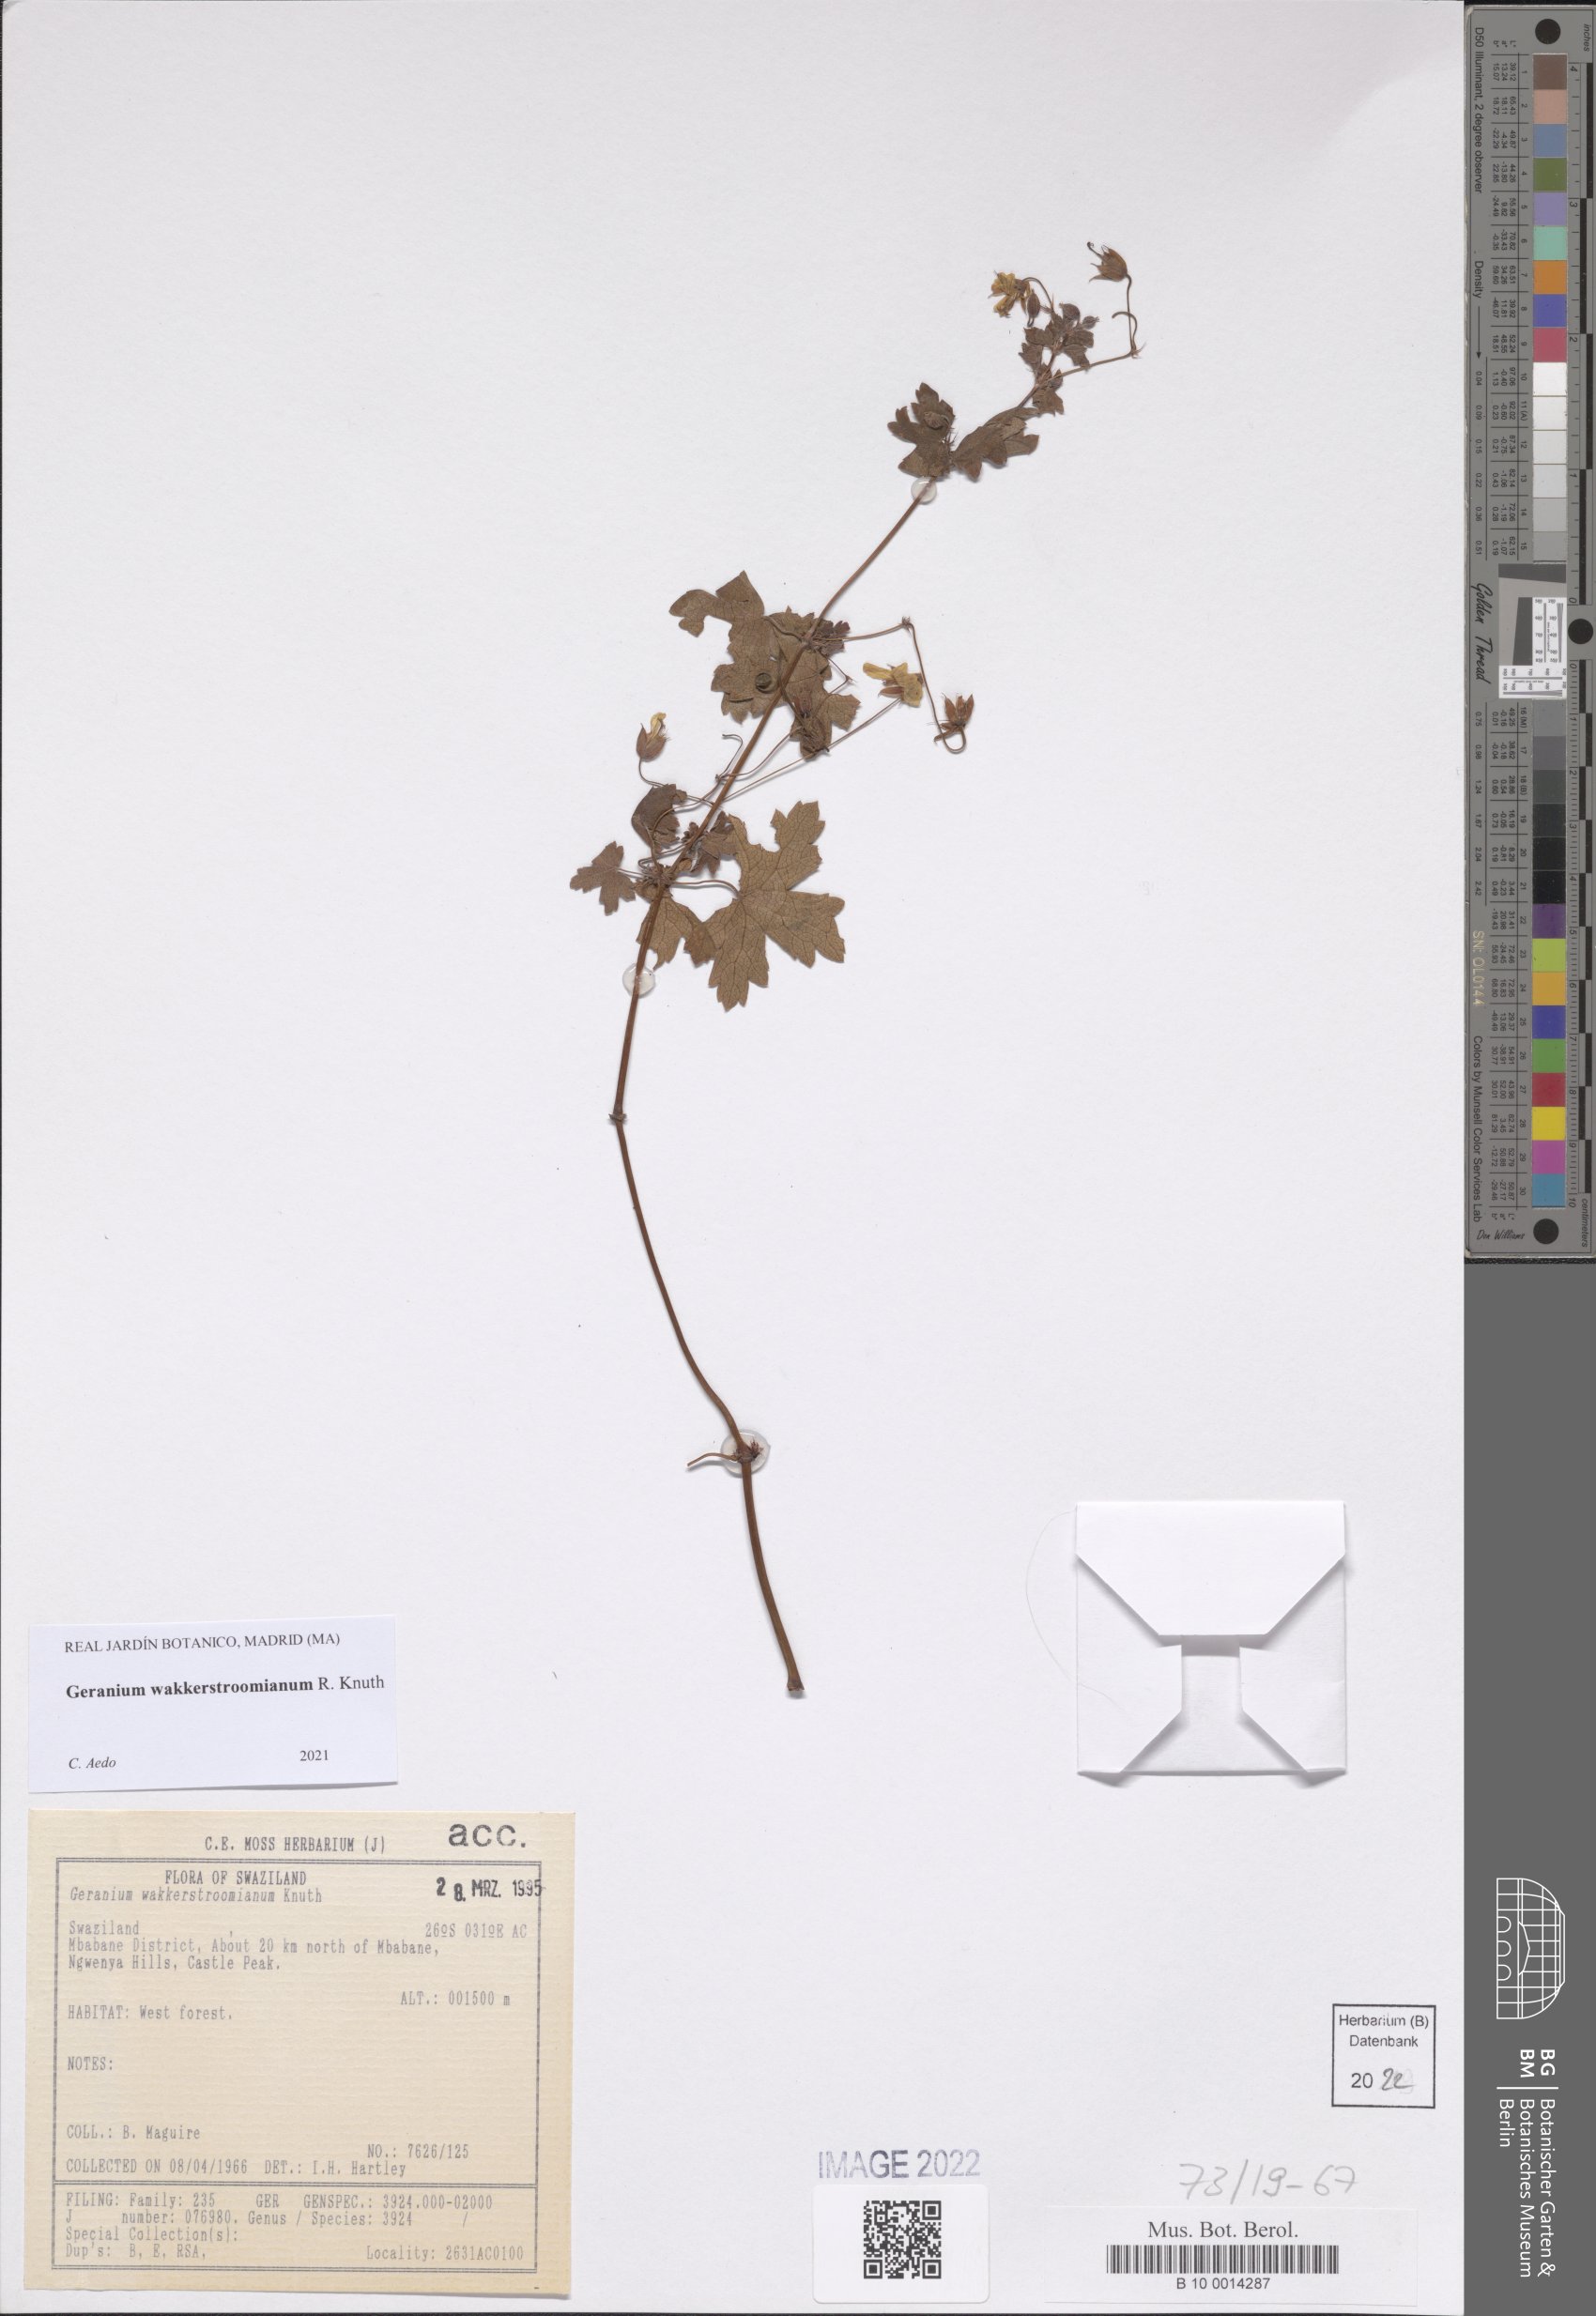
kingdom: Plantae
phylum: Tracheophyta
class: Magnoliopsida
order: Geraniales
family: Geraniaceae
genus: Geranium
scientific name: Geranium wakkerstroomianum
